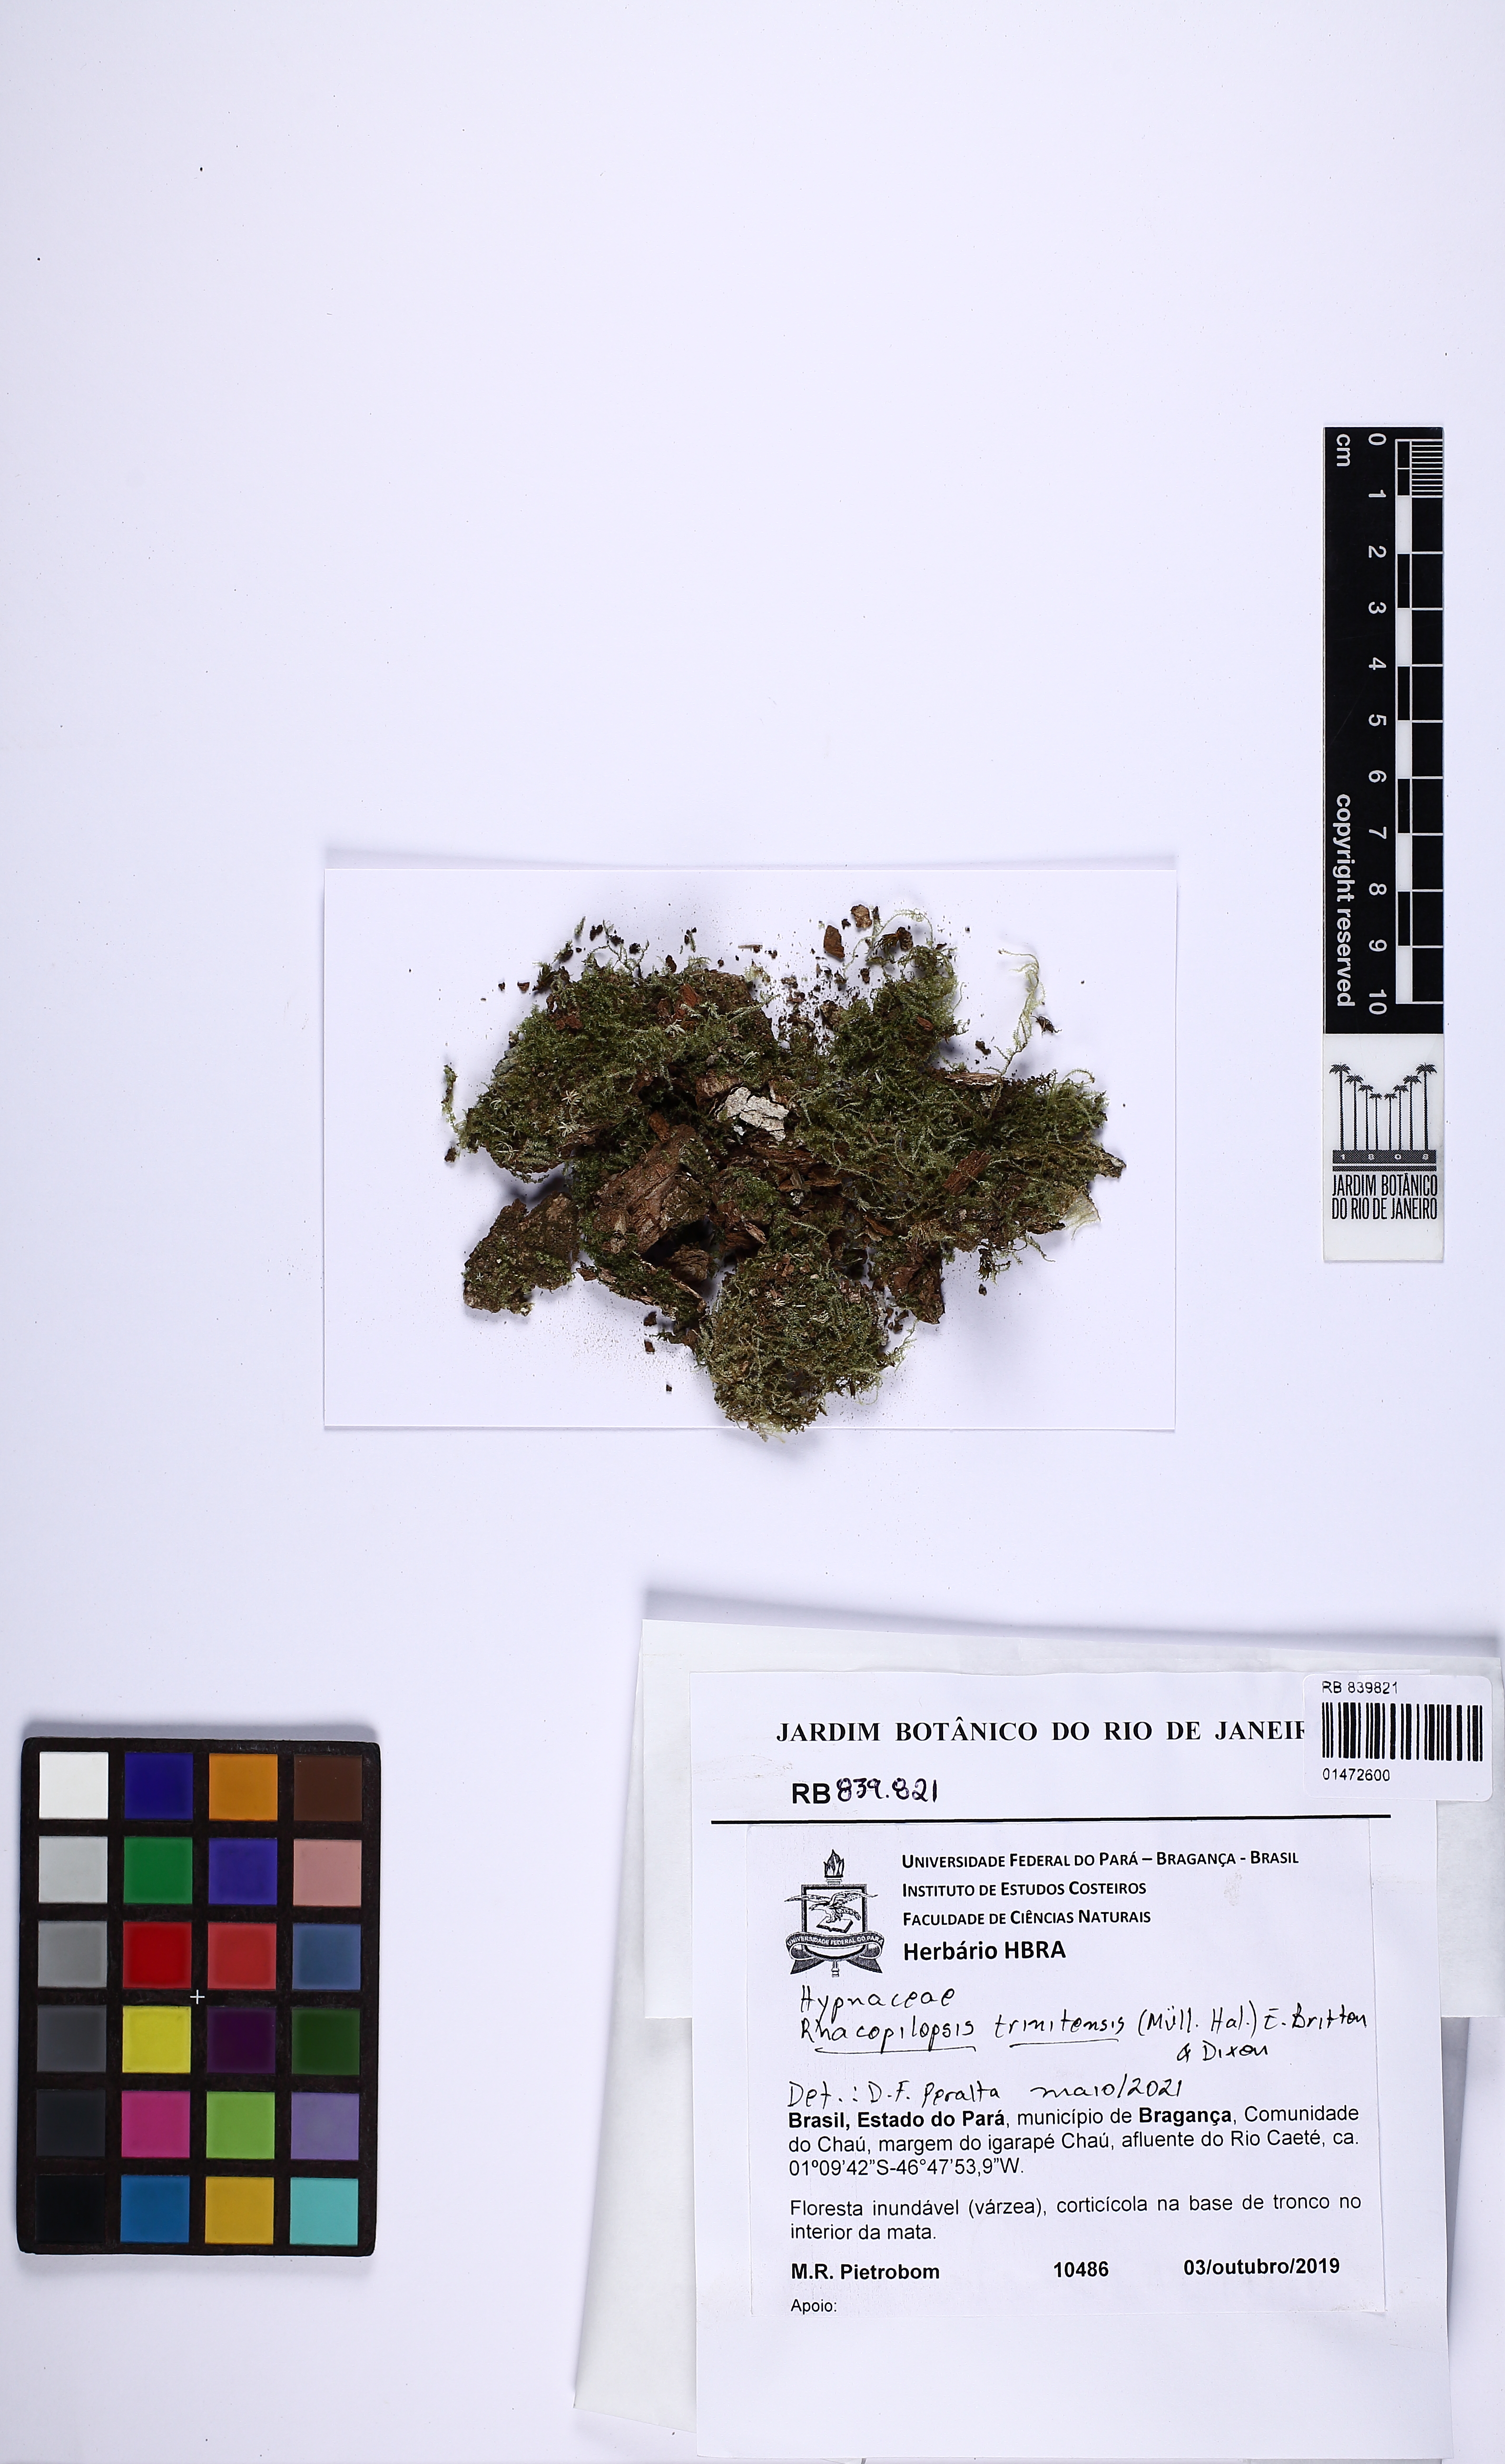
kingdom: Plantae
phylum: Bryophyta
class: Bryopsida
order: Hypnales
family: Hypnaceae
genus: Rhacopilopsis
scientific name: Rhacopilopsis trinitensis
